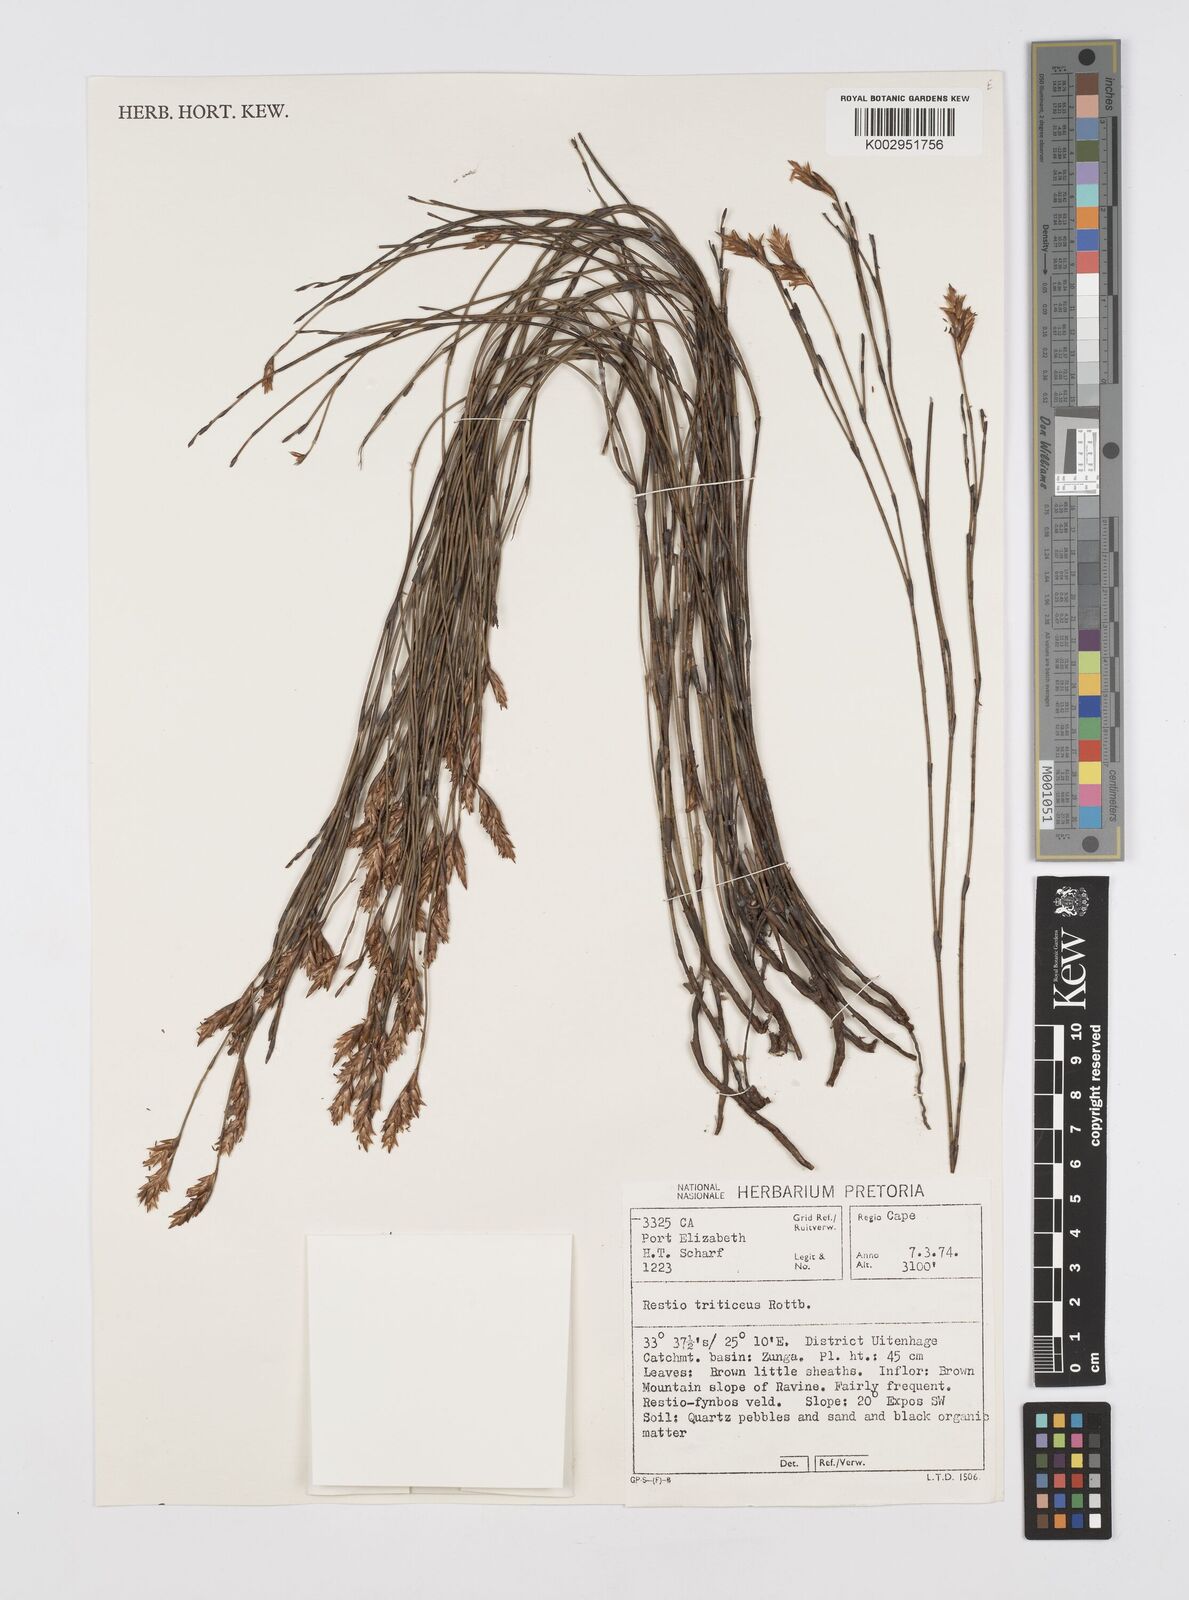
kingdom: Plantae
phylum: Tracheophyta
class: Liliopsida
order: Poales
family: Restionaceae
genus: Restio
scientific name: Restio triticeus
